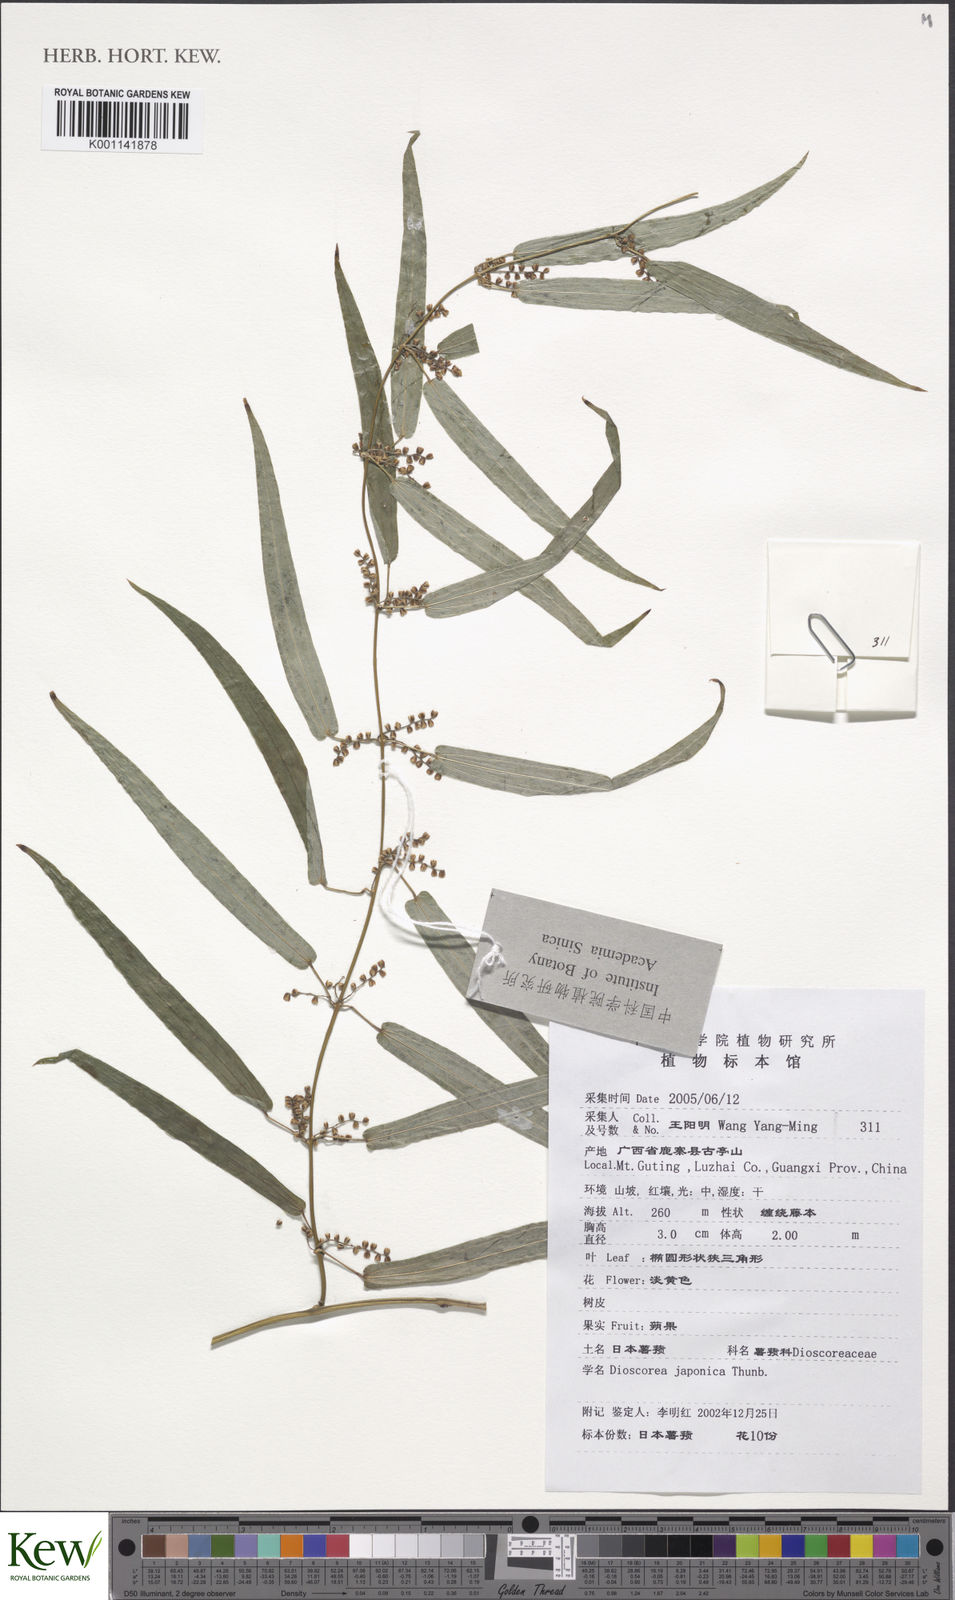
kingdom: Plantae
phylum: Tracheophyta
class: Liliopsida
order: Dioscoreales
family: Dioscoreaceae
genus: Dioscorea
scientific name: Dioscorea japonica
